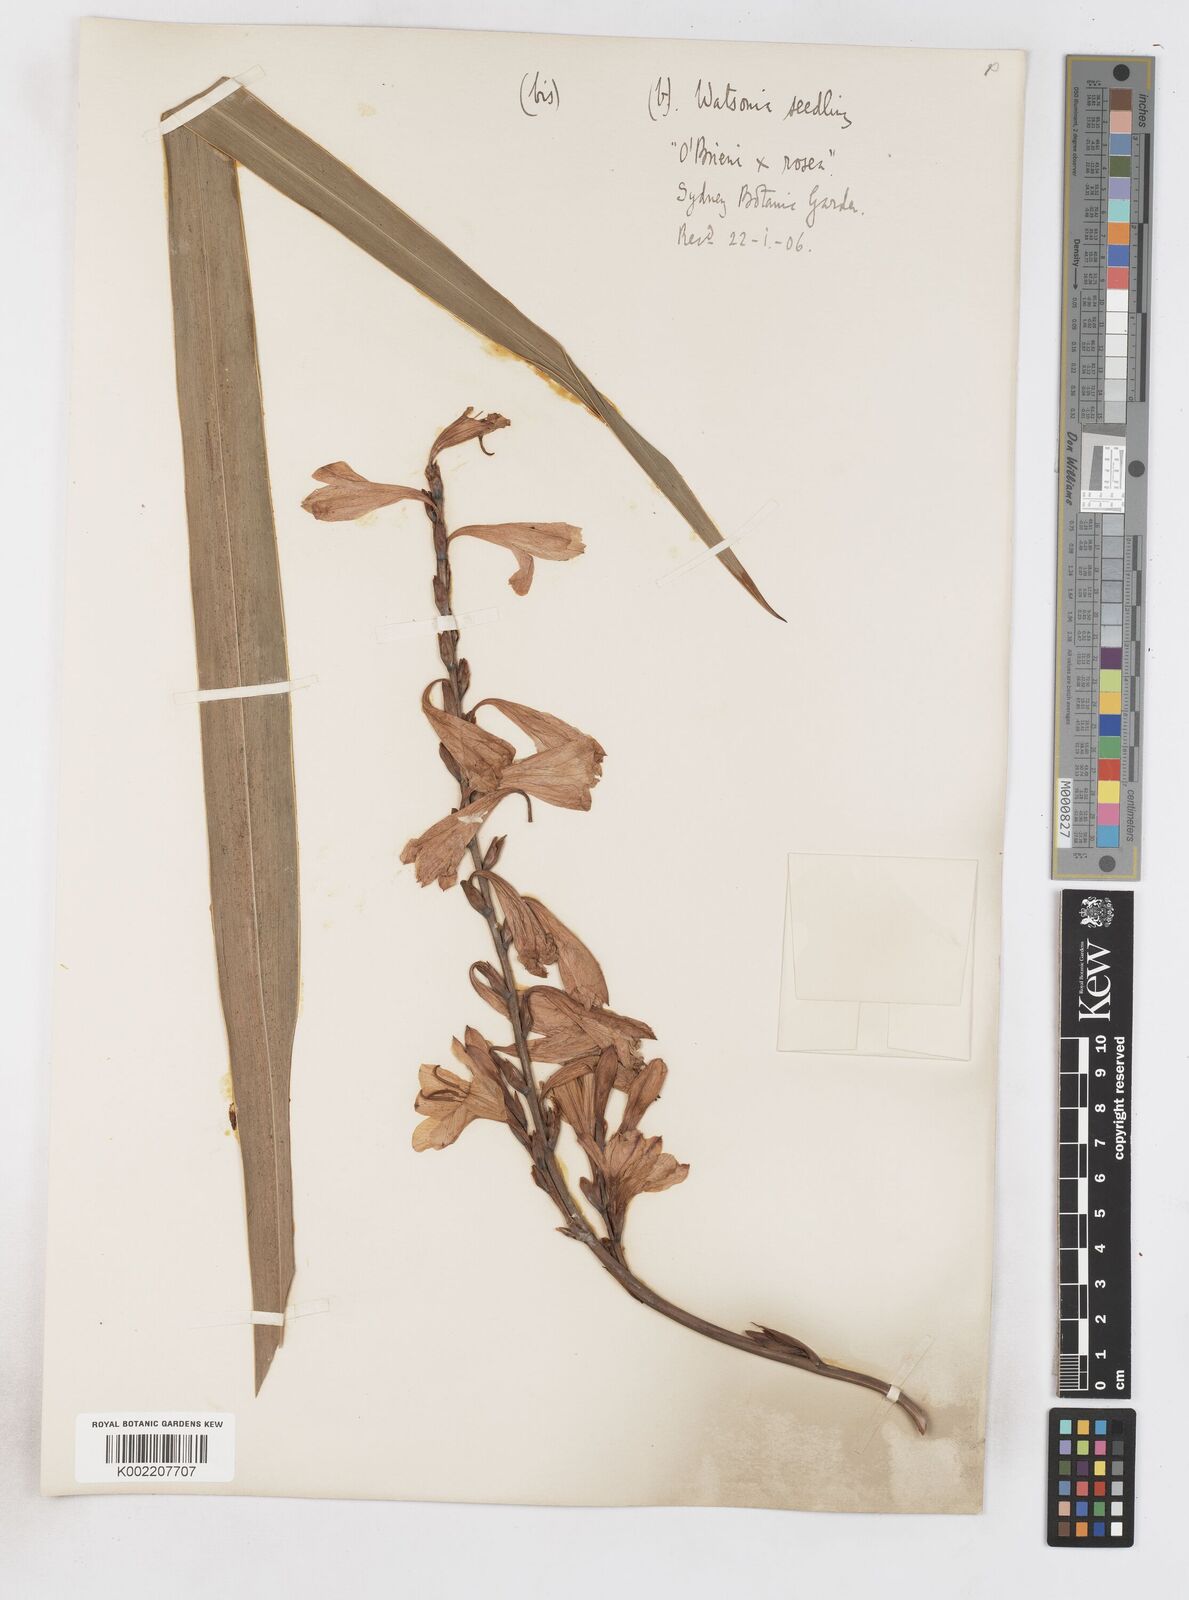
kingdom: Plantae
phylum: Tracheophyta
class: Liliopsida
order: Asparagales
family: Iridaceae
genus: Watsonia
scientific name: Watsonia borbonica
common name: Bugle-lily
